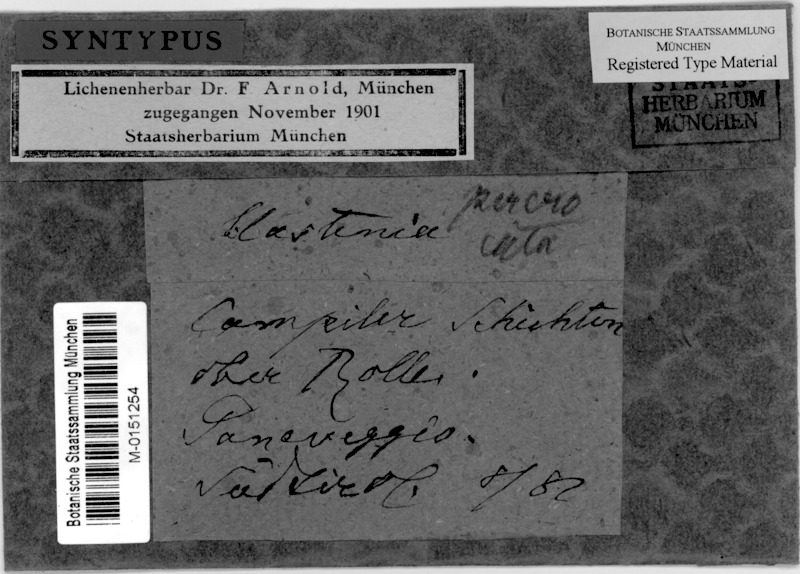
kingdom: Fungi
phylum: Ascomycota
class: Lecanoromycetes
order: Teloschistales
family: Teloschistaceae
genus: Kuettlingeria
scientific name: Kuettlingeria percrocata
